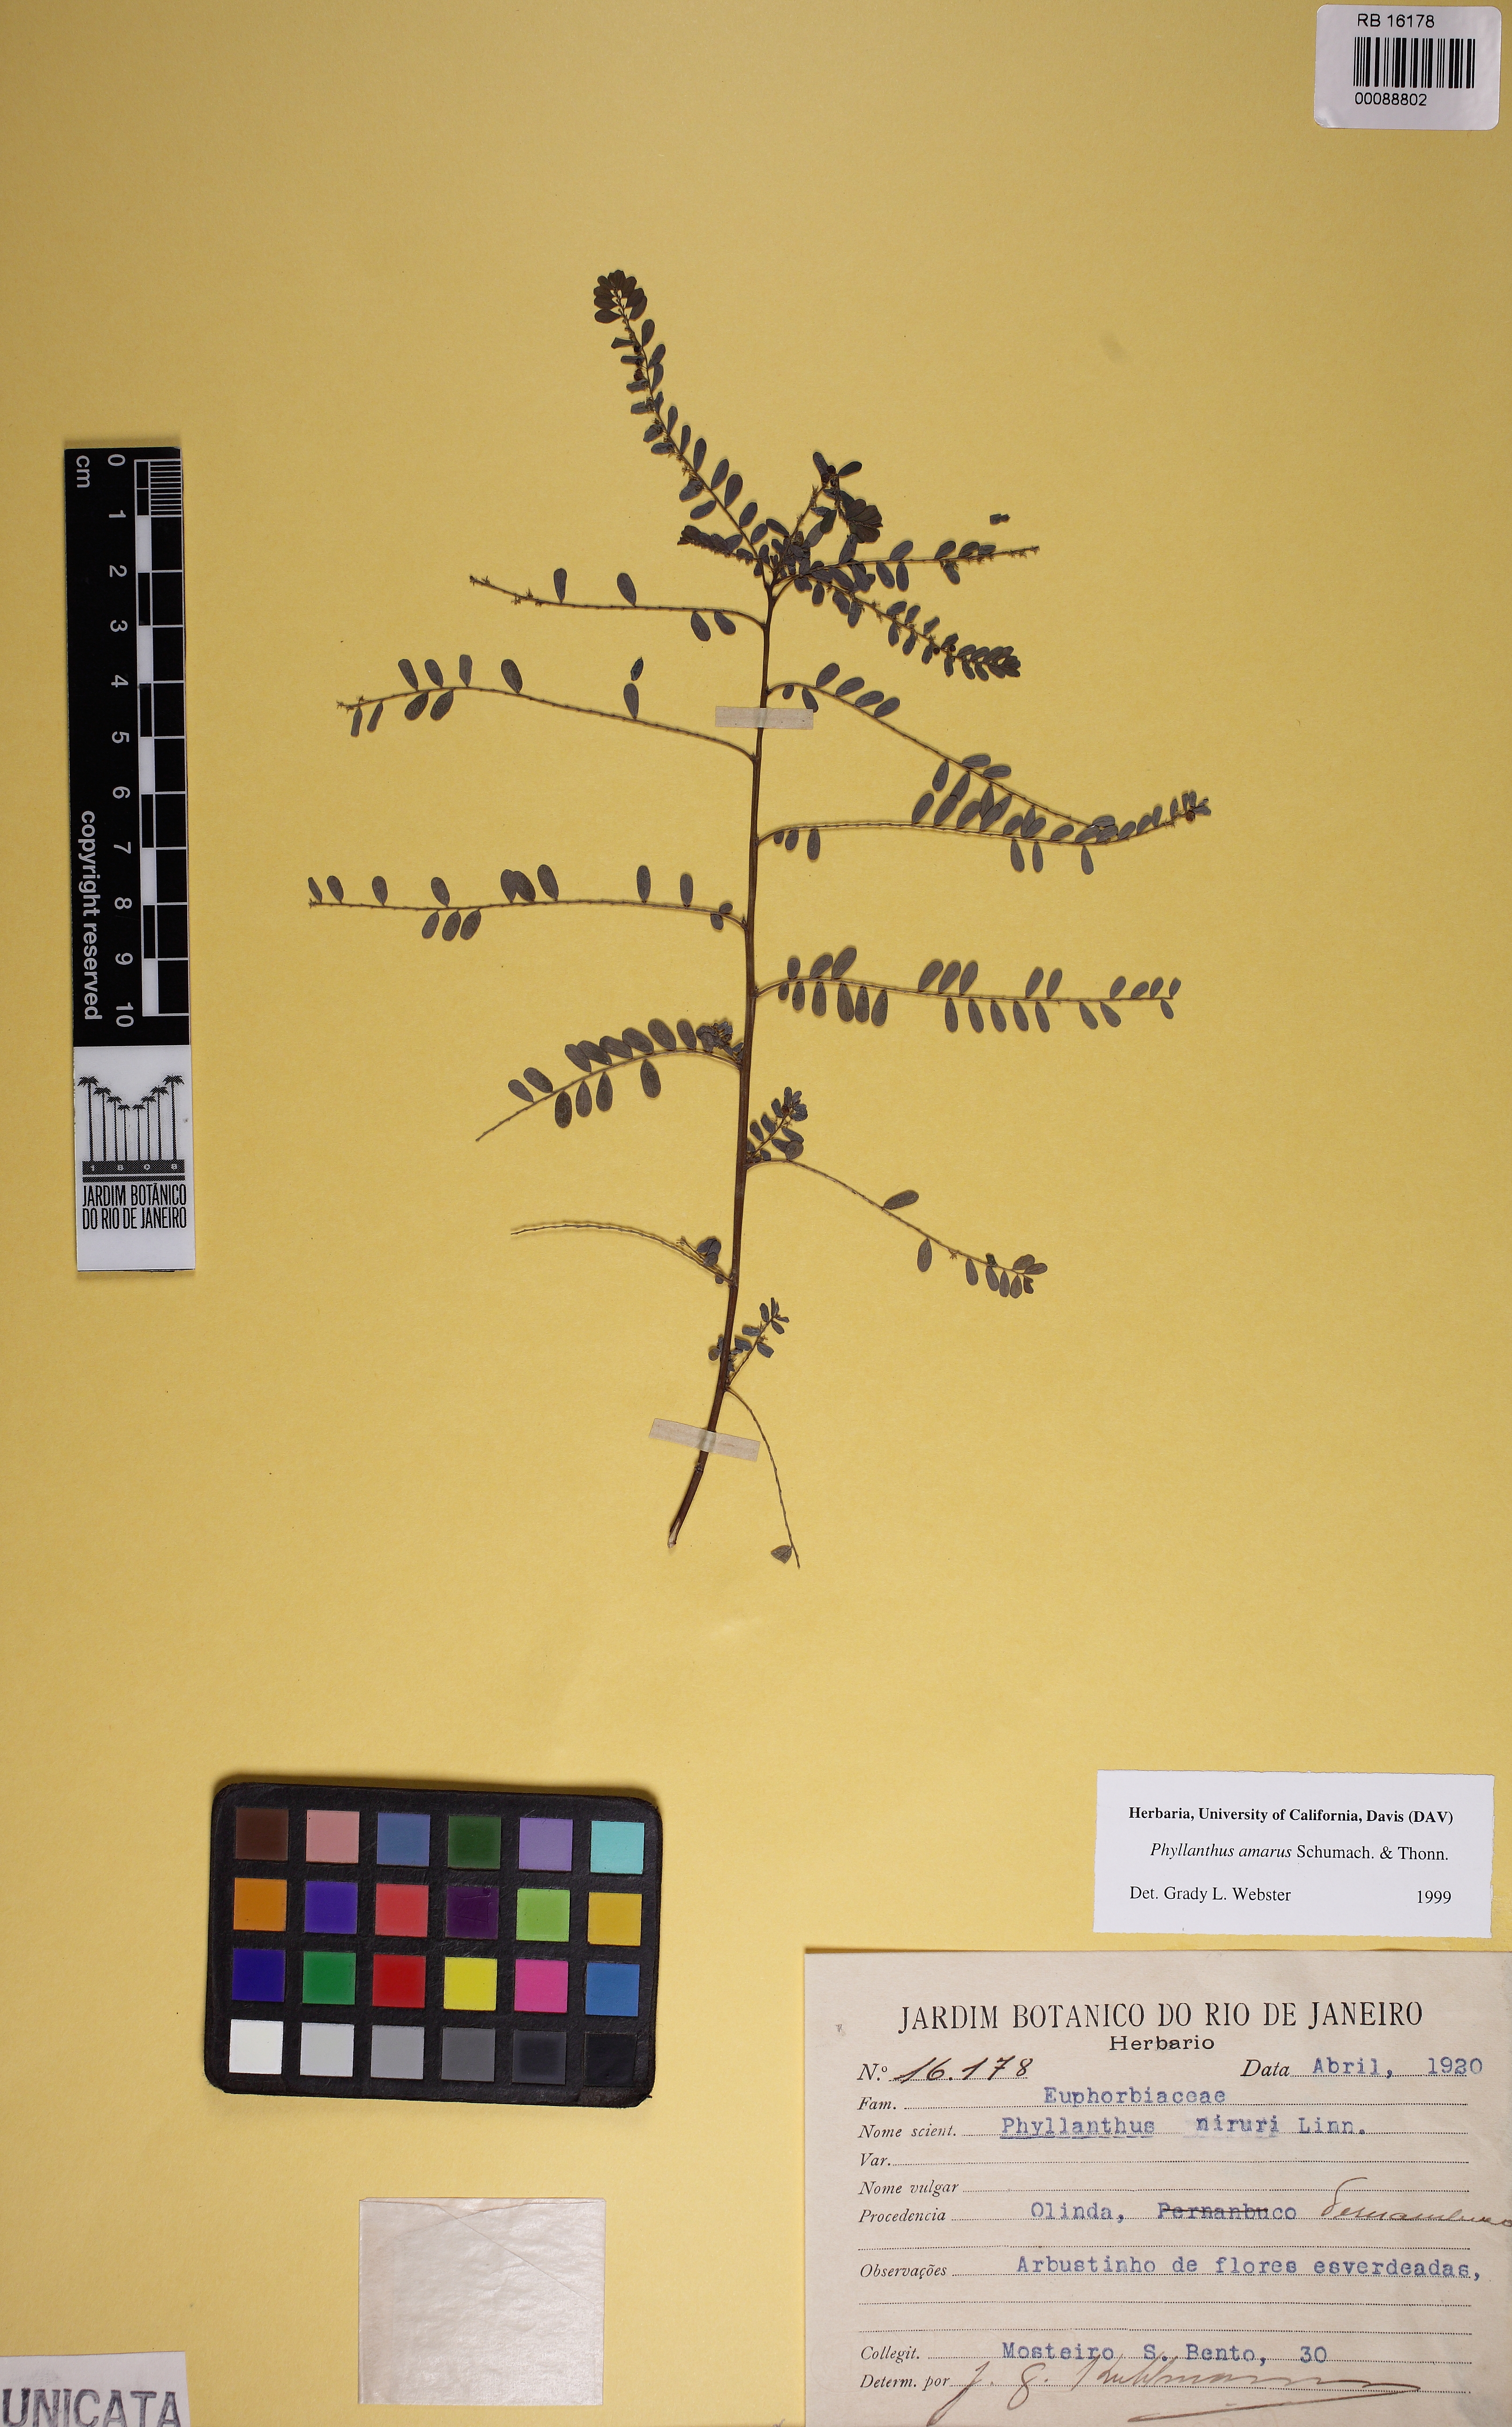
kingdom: Plantae
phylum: Tracheophyta
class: Magnoliopsida
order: Malpighiales
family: Phyllanthaceae
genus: Phyllanthus
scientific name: Phyllanthus amarus
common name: Carry me seed
